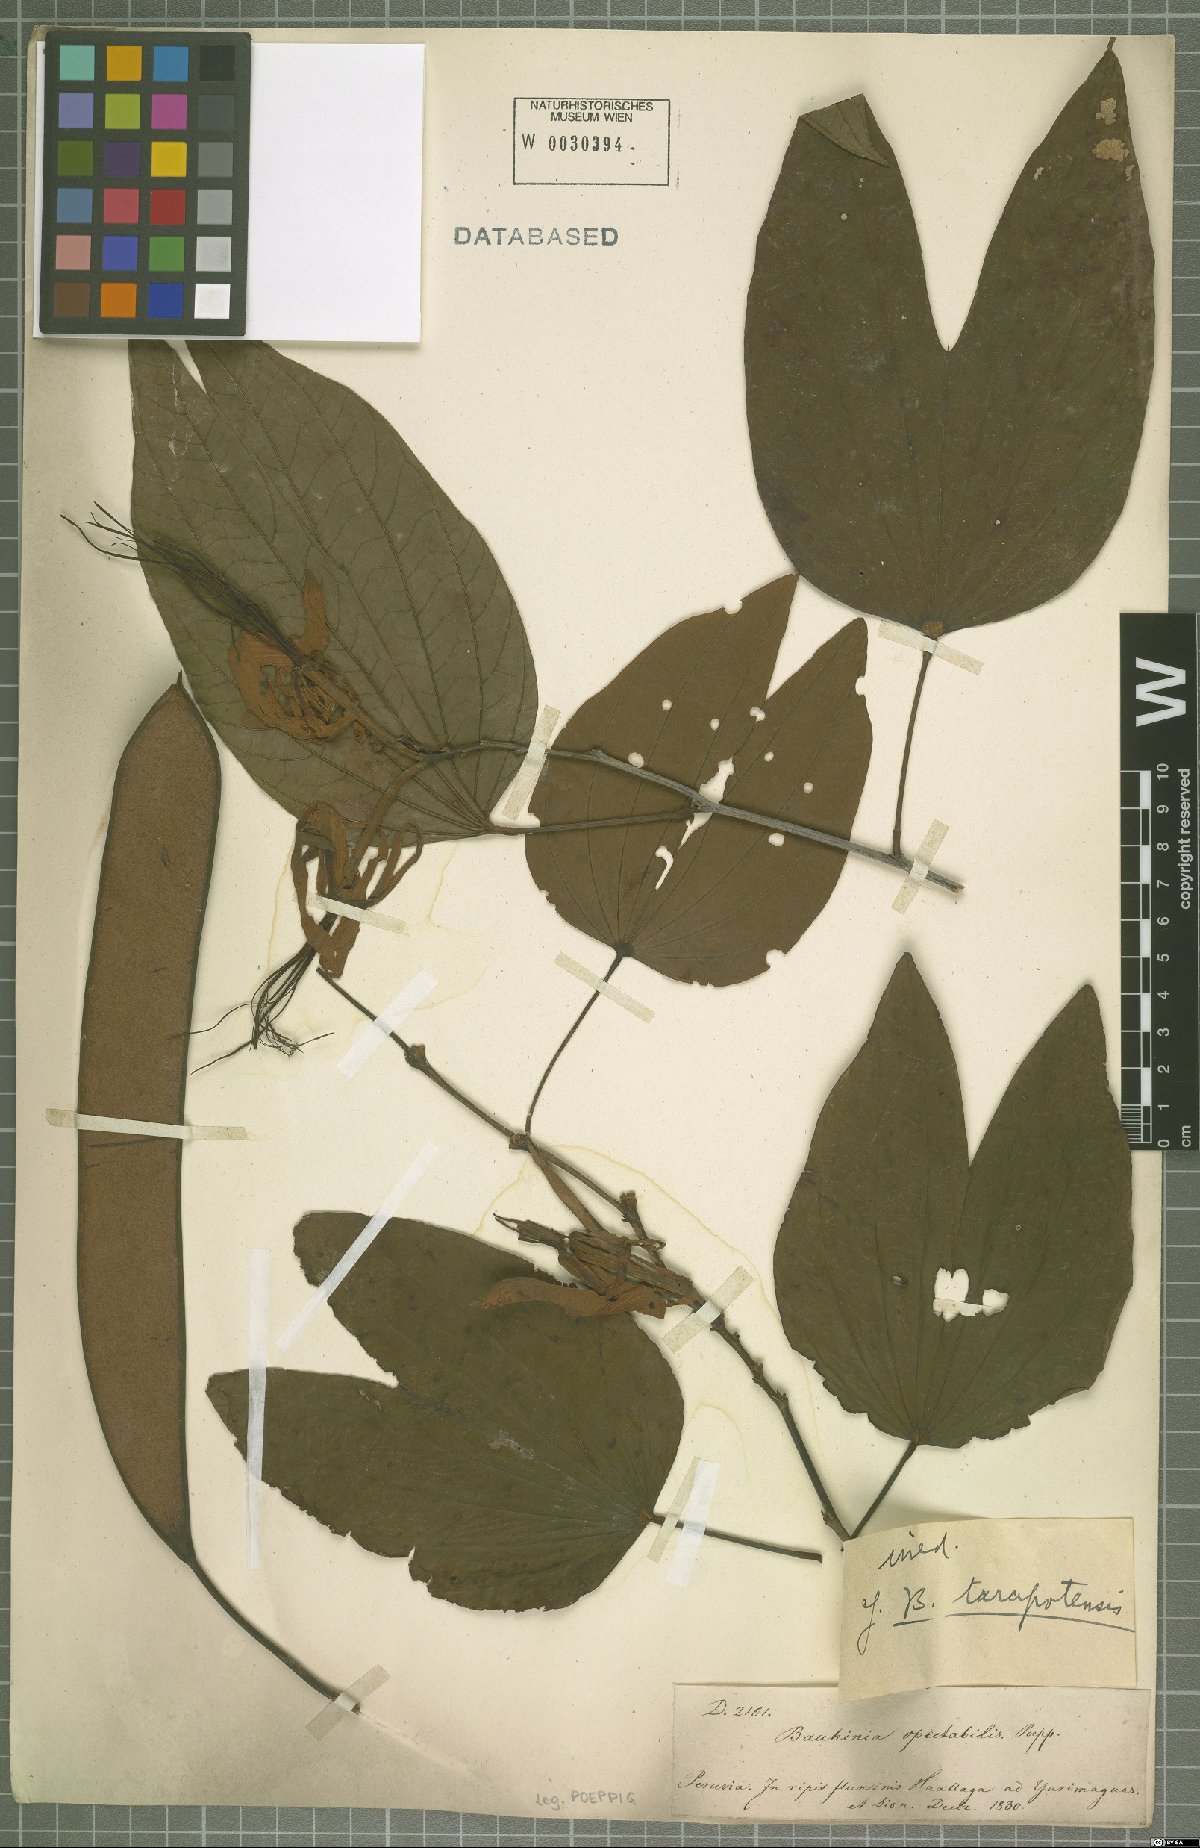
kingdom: Plantae
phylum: Tracheophyta
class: Magnoliopsida
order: Fabales
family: Fabaceae
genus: Bauhinia
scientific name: Bauhinia
